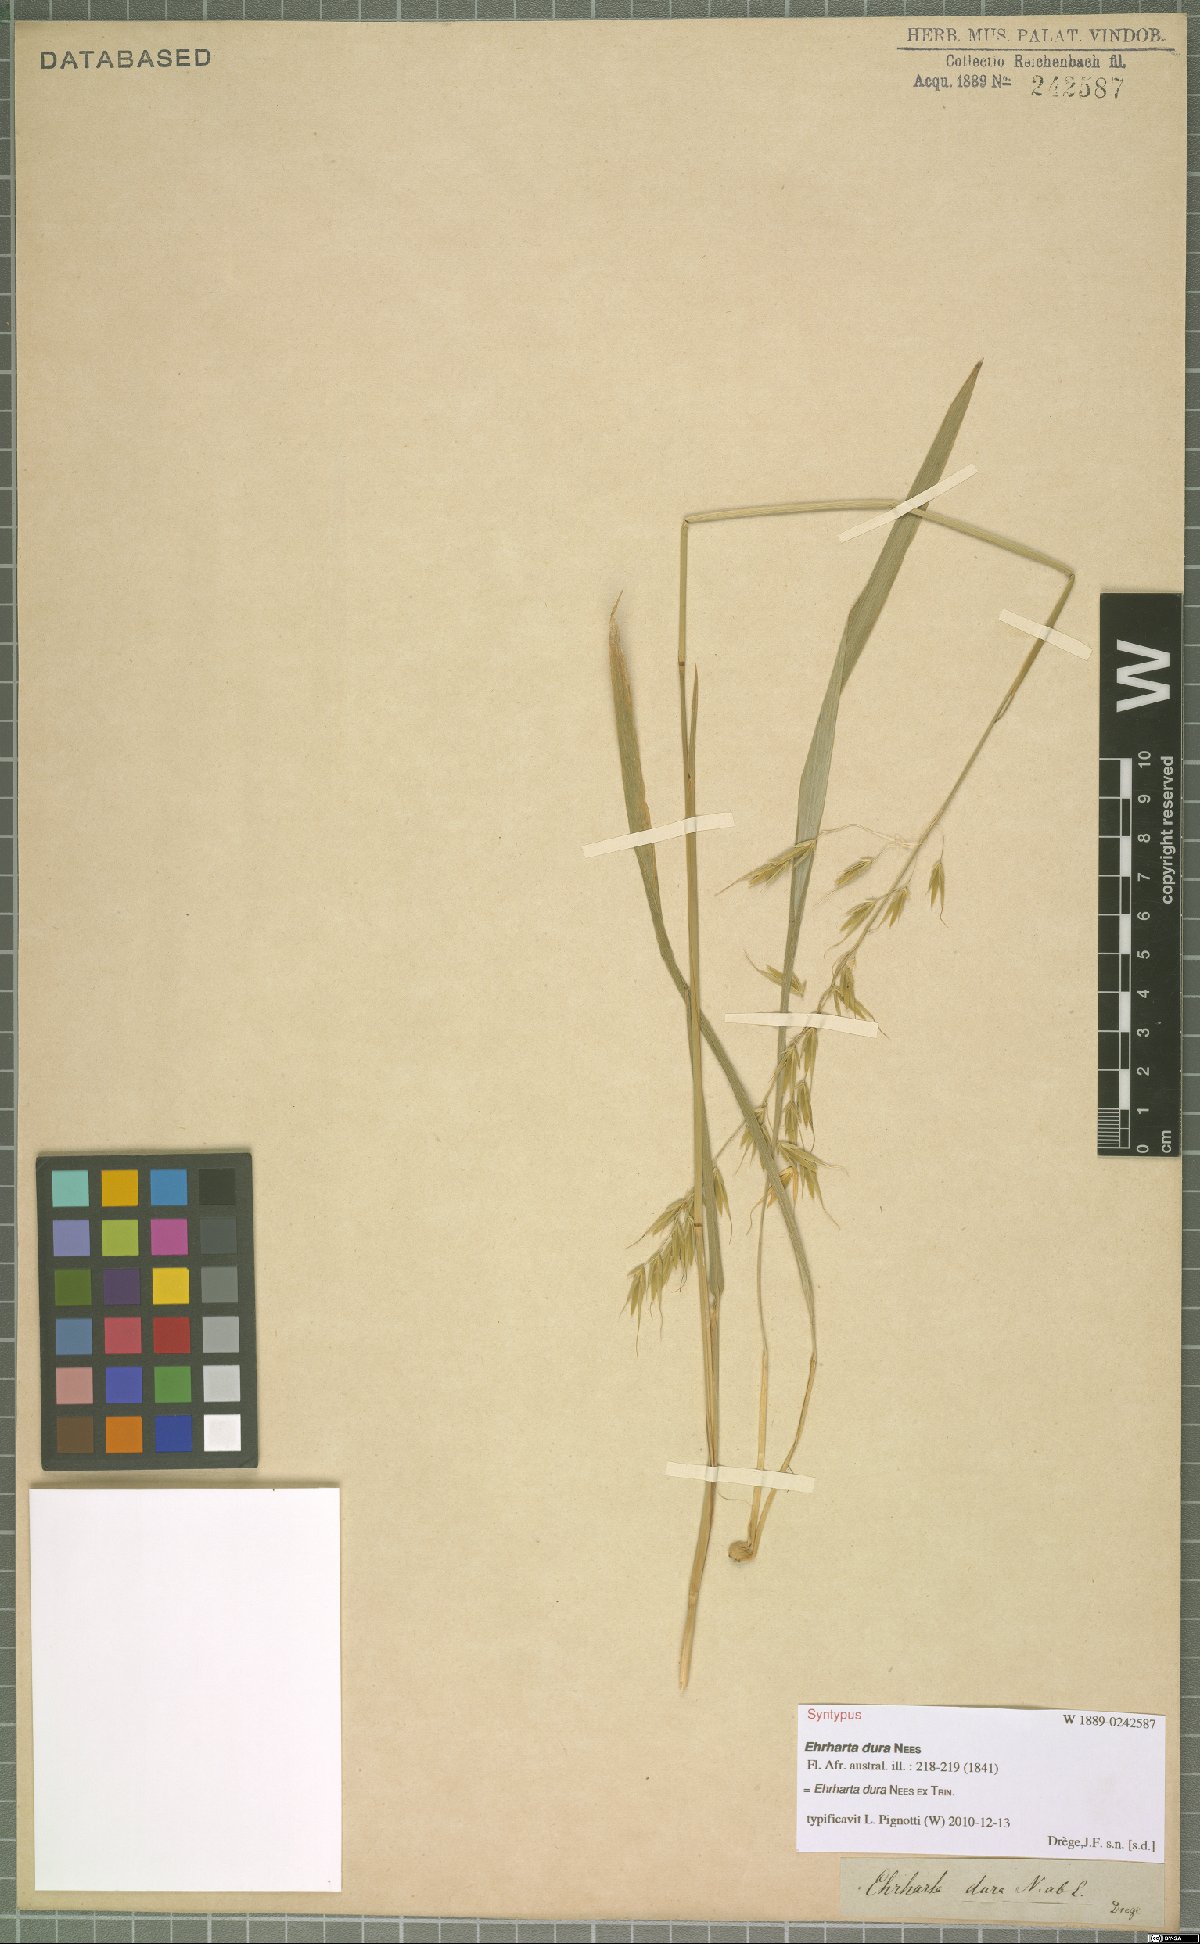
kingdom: Plantae
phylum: Tracheophyta
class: Liliopsida
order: Poales
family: Poaceae
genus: Ehrharta
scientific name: Ehrharta dura
